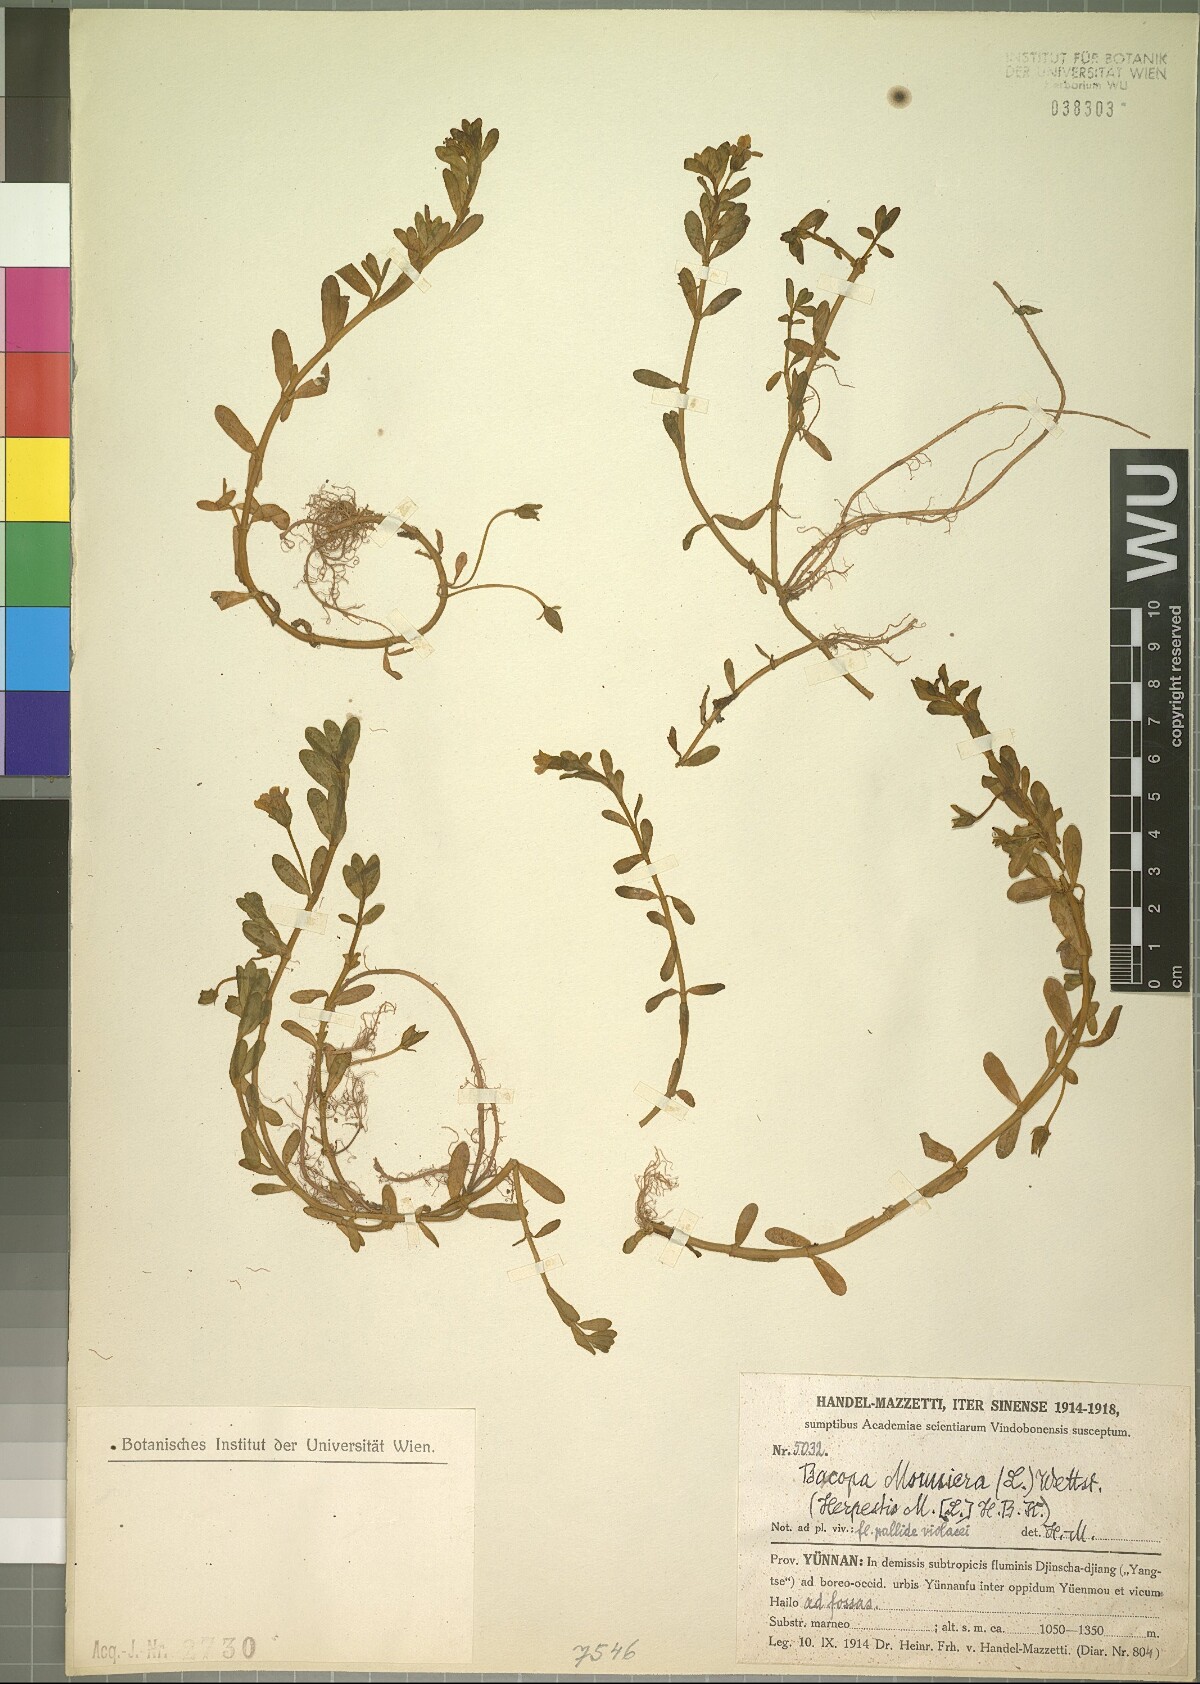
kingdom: Plantae
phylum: Tracheophyta
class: Magnoliopsida
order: Lamiales
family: Plantaginaceae
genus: Bacopa
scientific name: Bacopa monnieri
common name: Indian-pennywort
